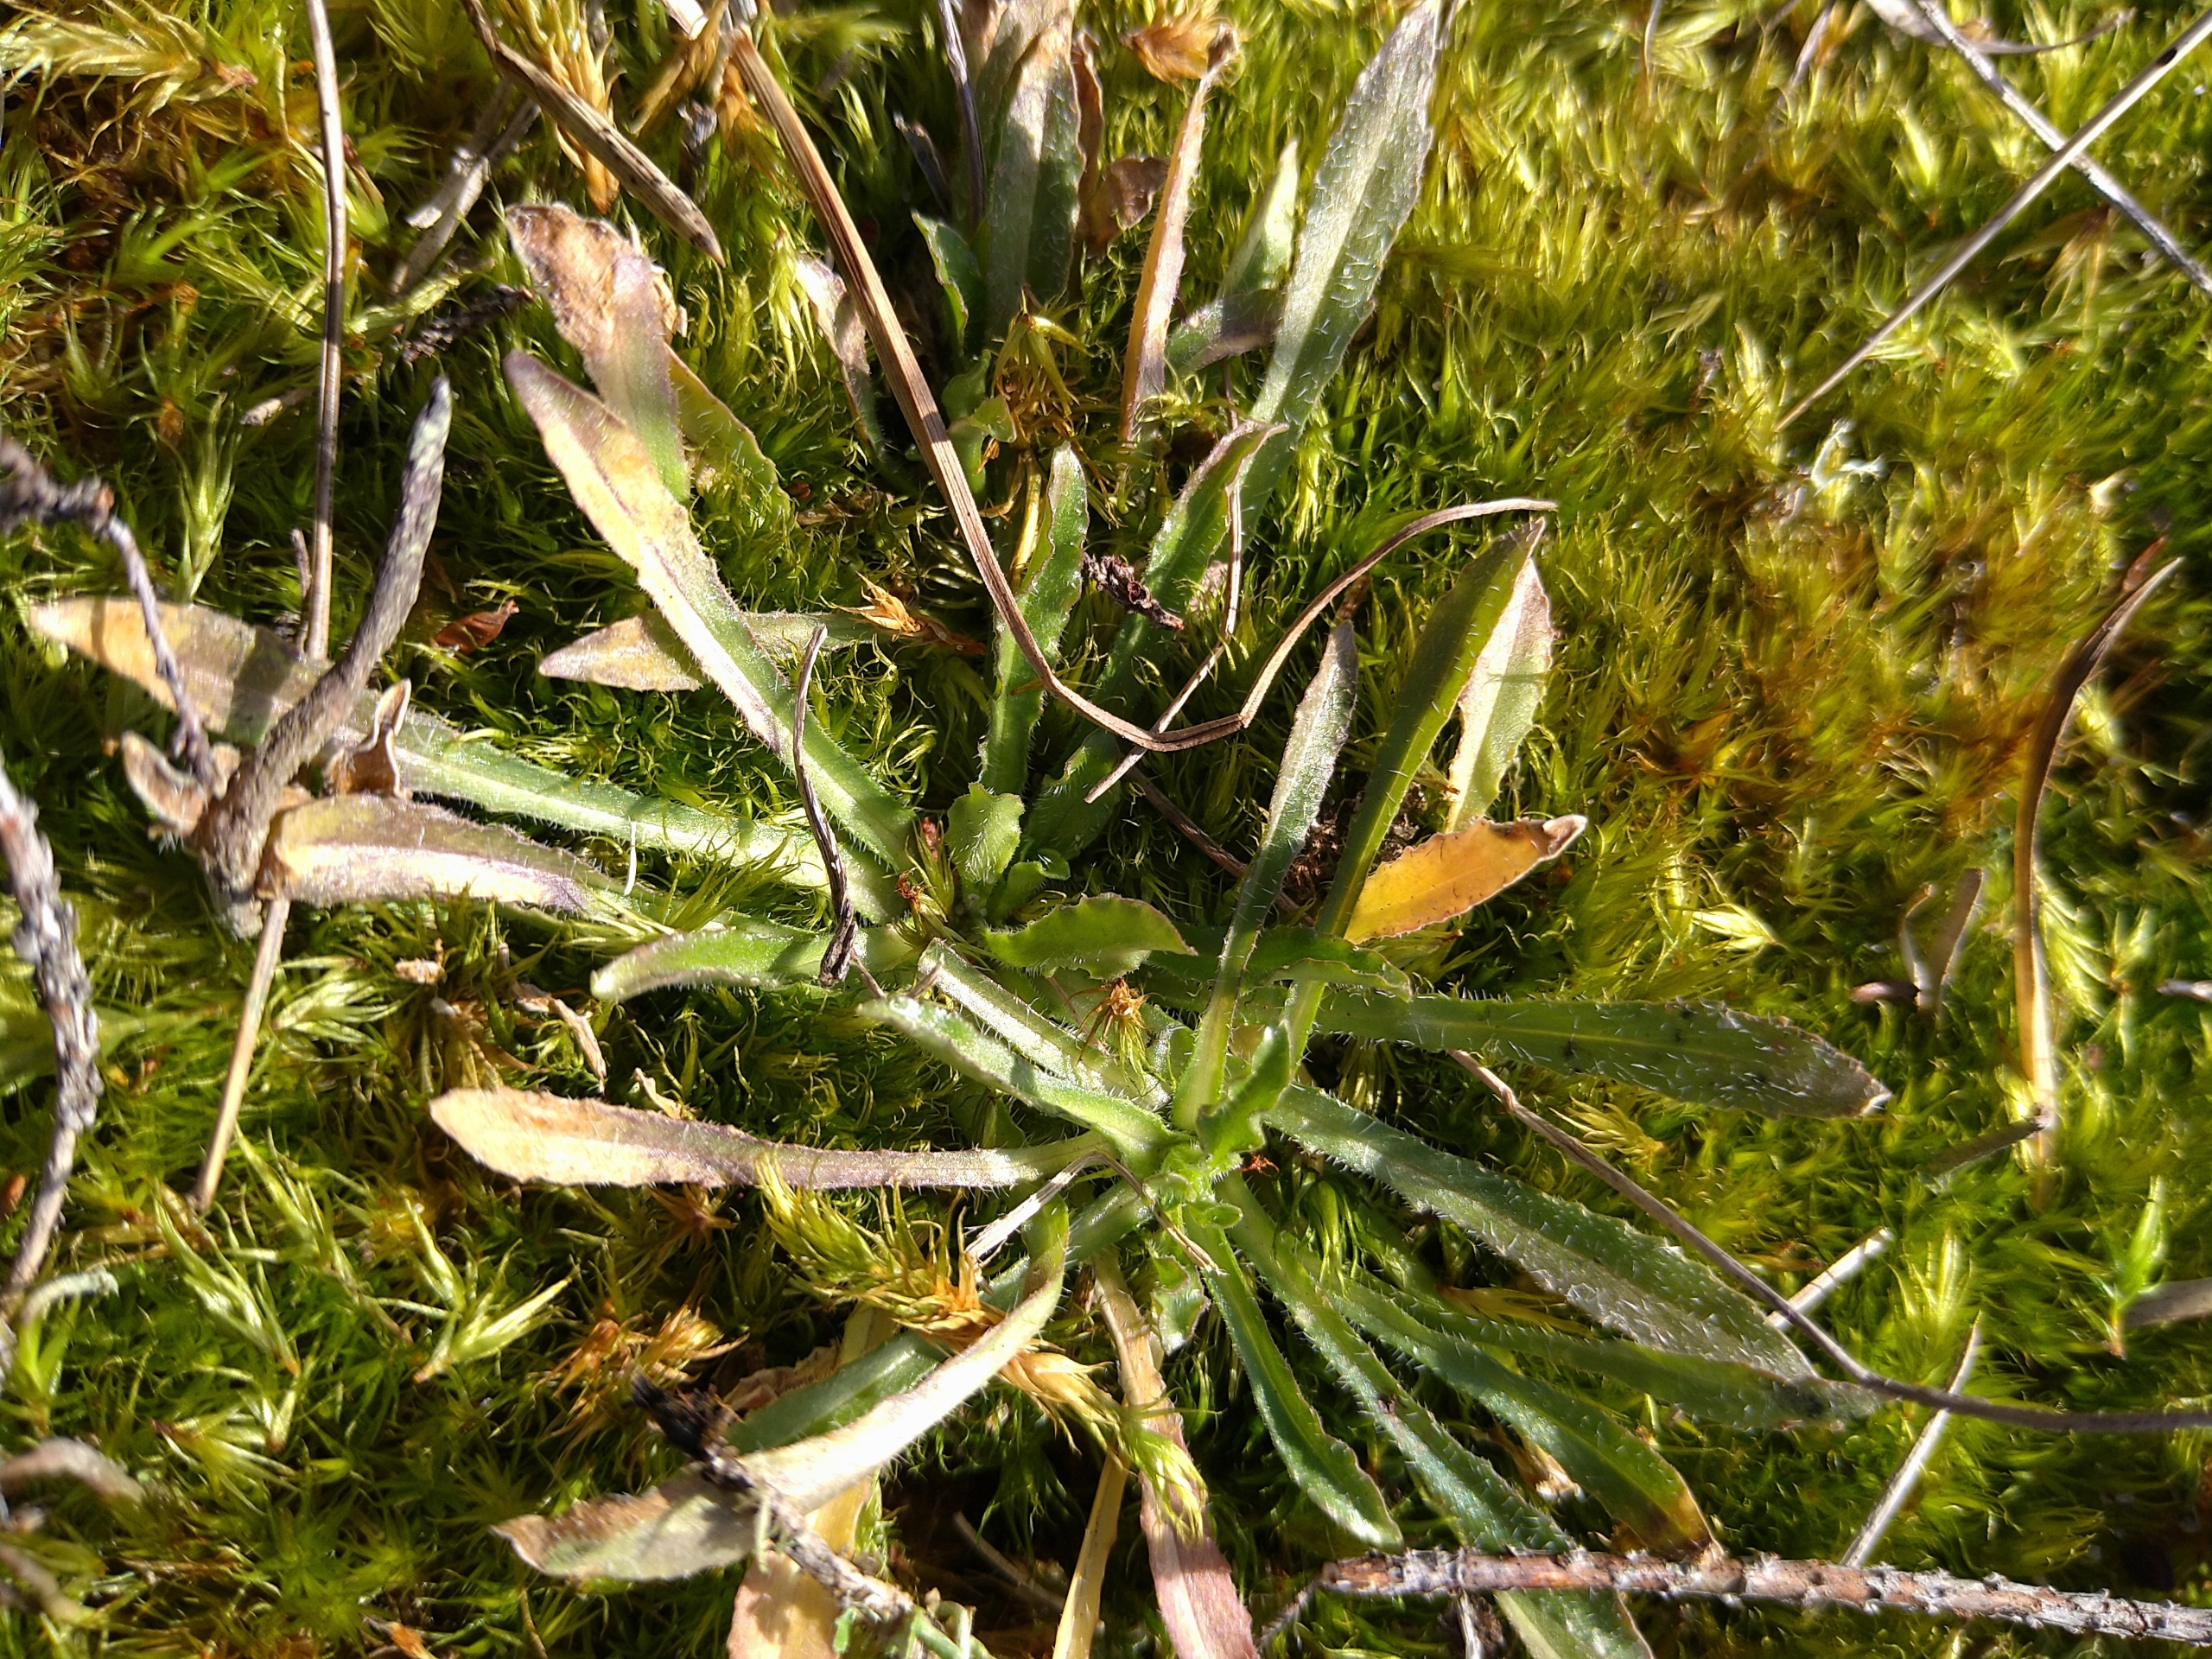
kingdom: Plantae
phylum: Tracheophyta
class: Magnoliopsida
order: Asterales
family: Campanulaceae
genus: Jasione
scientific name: Jasione montana
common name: Blåmunke
